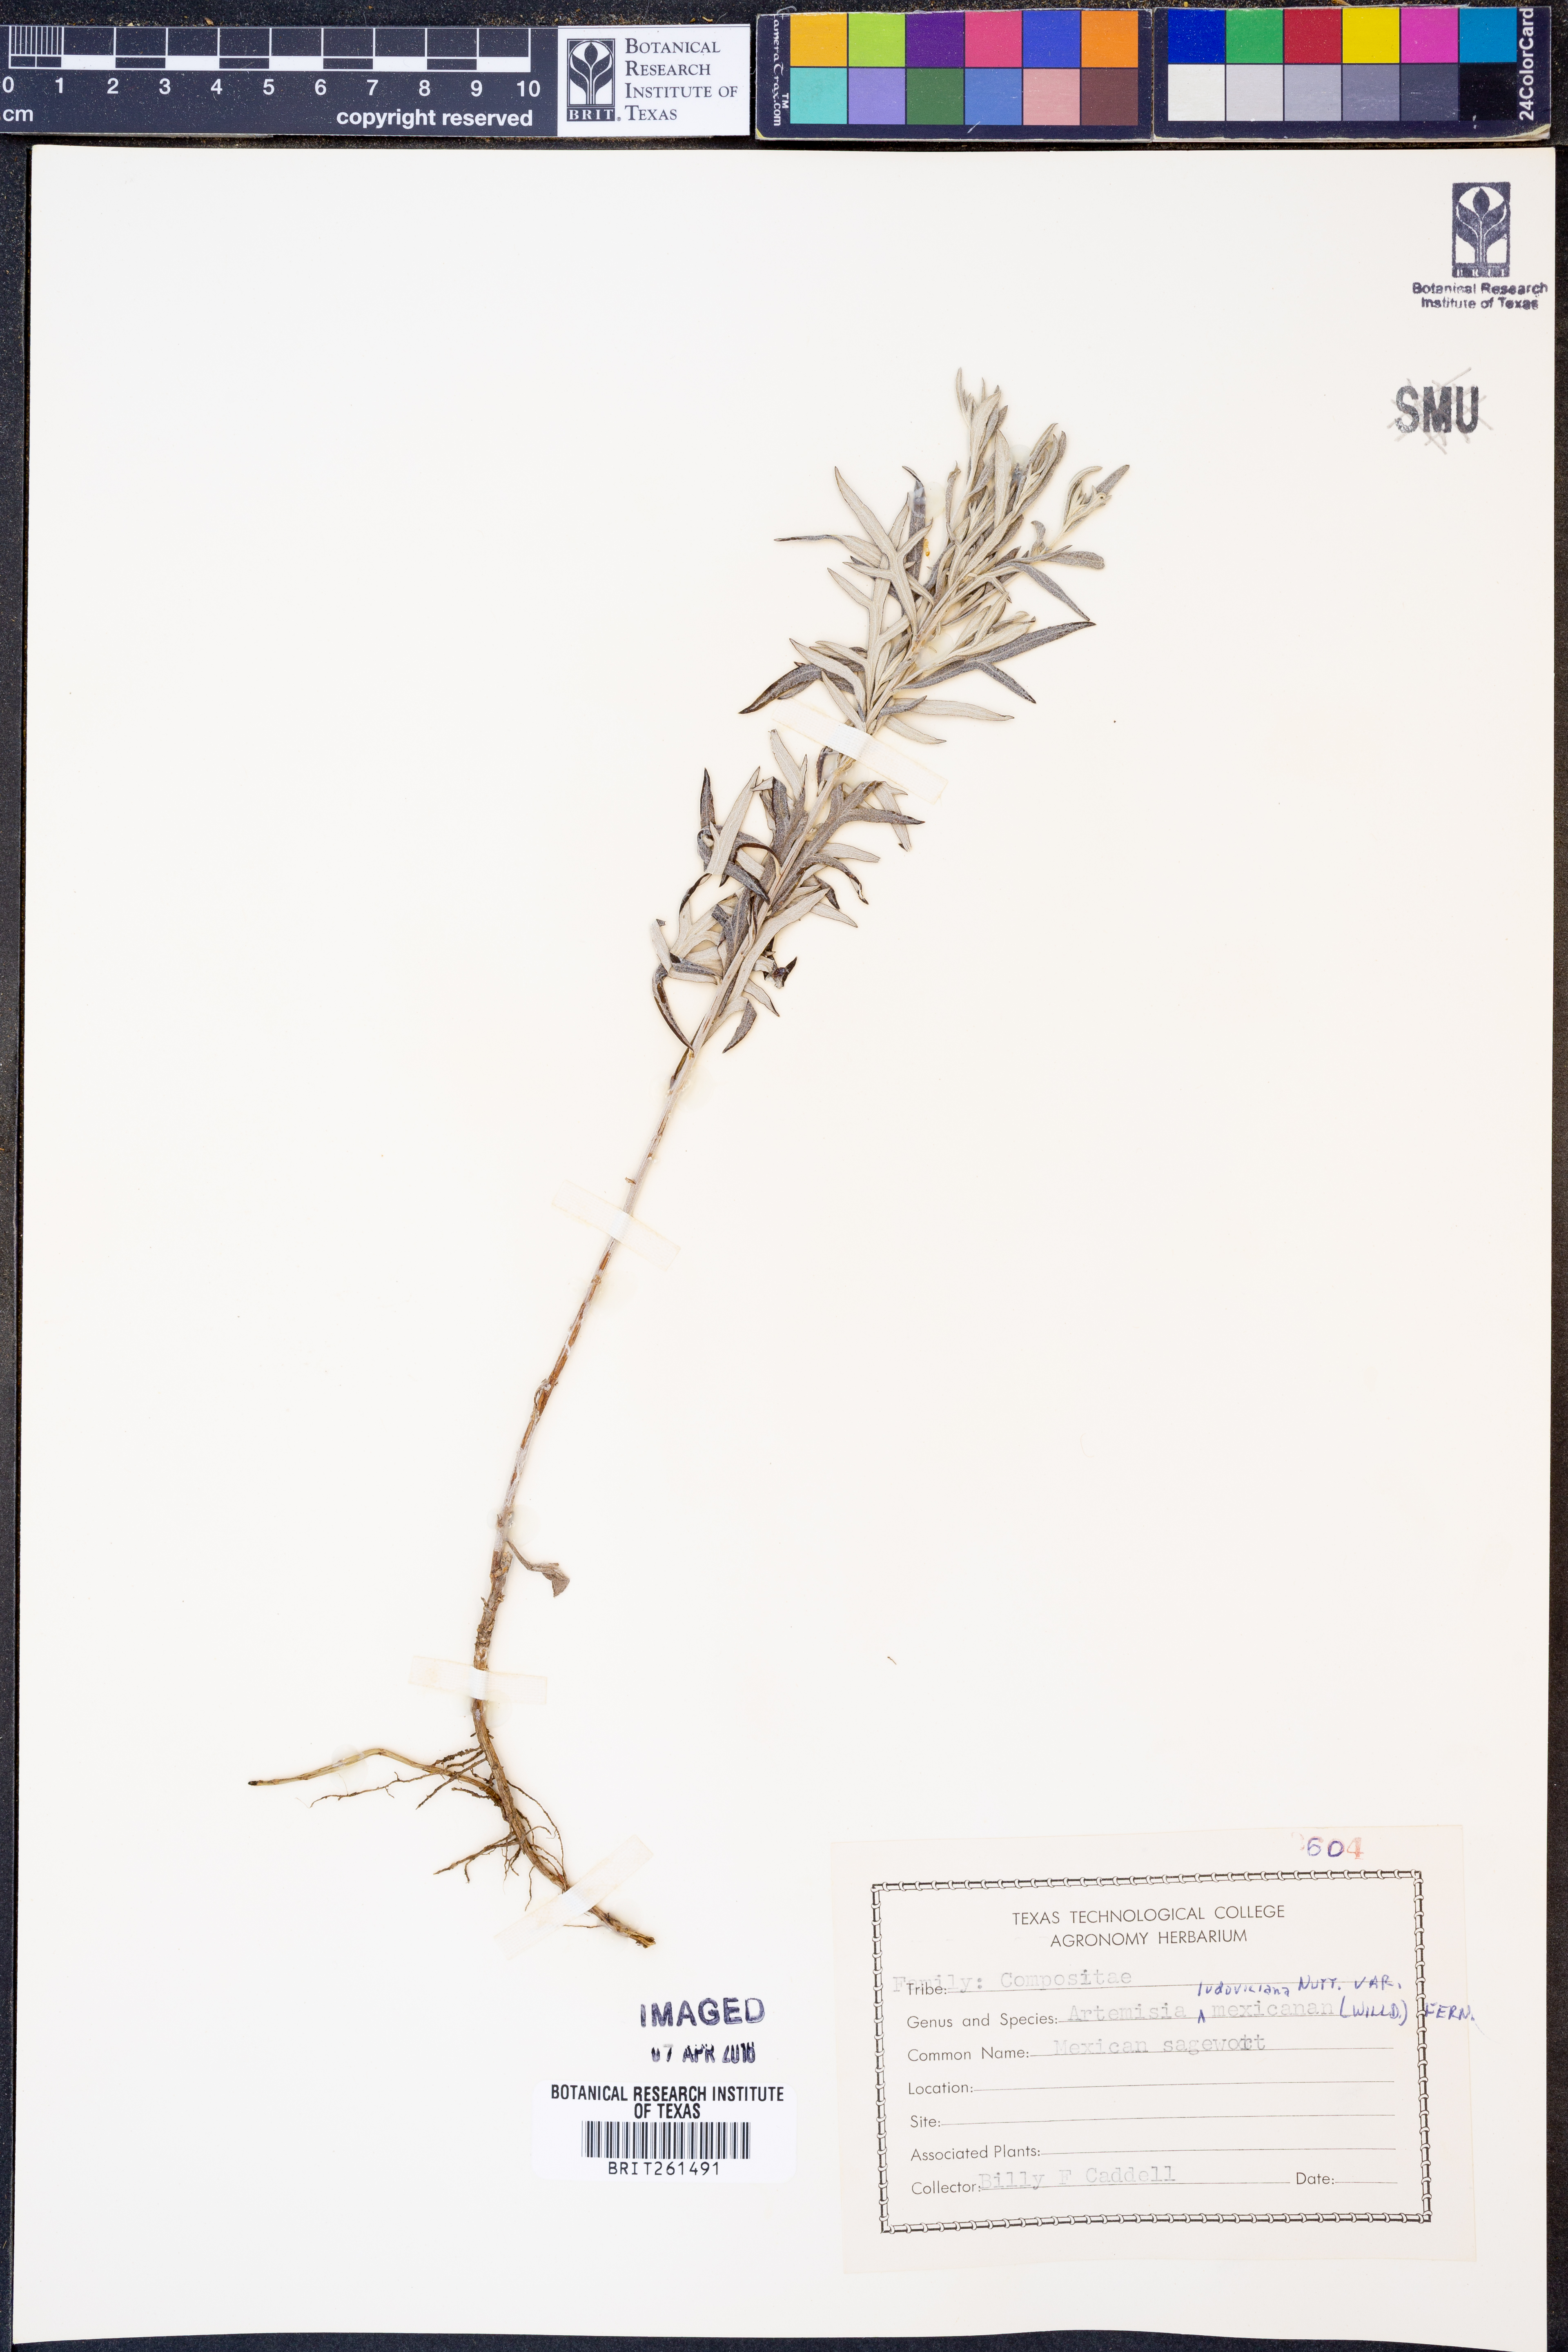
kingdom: Plantae
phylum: Tracheophyta
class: Magnoliopsida
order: Asterales
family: Asteraceae
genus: Artemisia
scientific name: Artemisia ludoviciana
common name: Western mugwort
